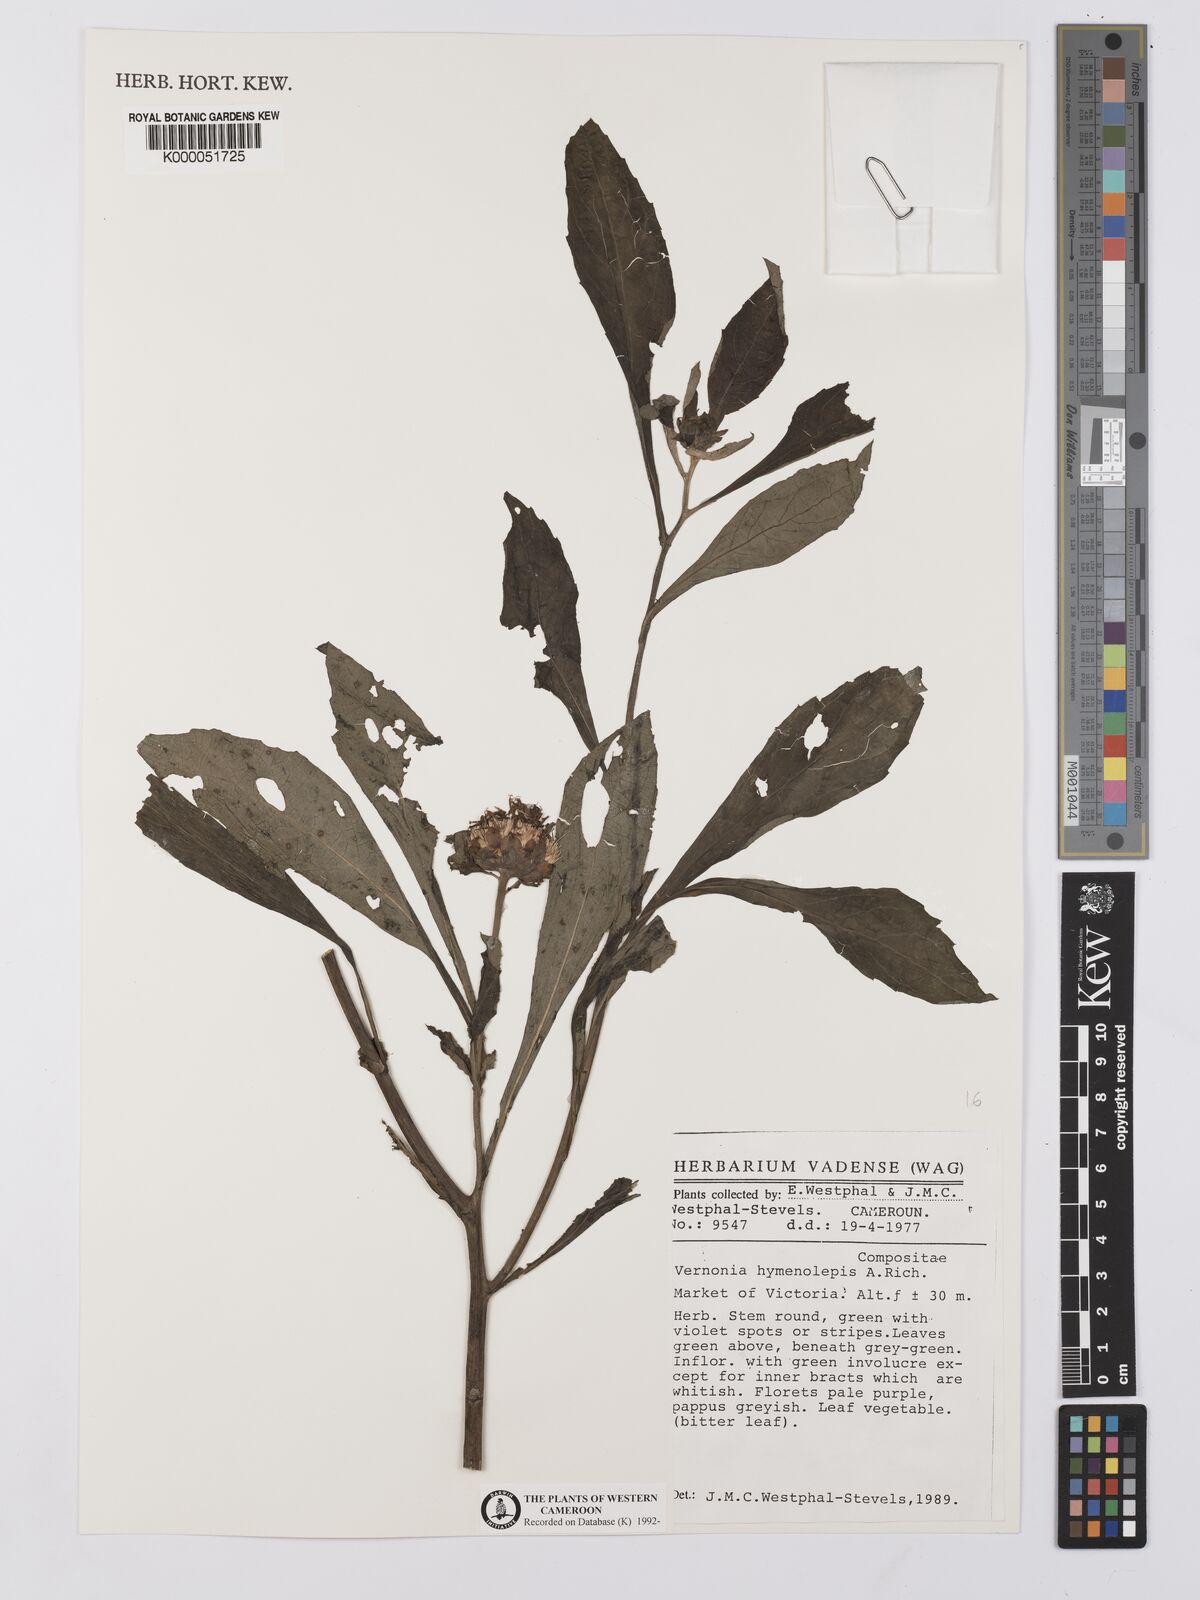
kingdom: Plantae
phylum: Tracheophyta
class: Magnoliopsida
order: Asterales
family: Asteraceae
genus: Baccharoides
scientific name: Baccharoides hymenolepis
